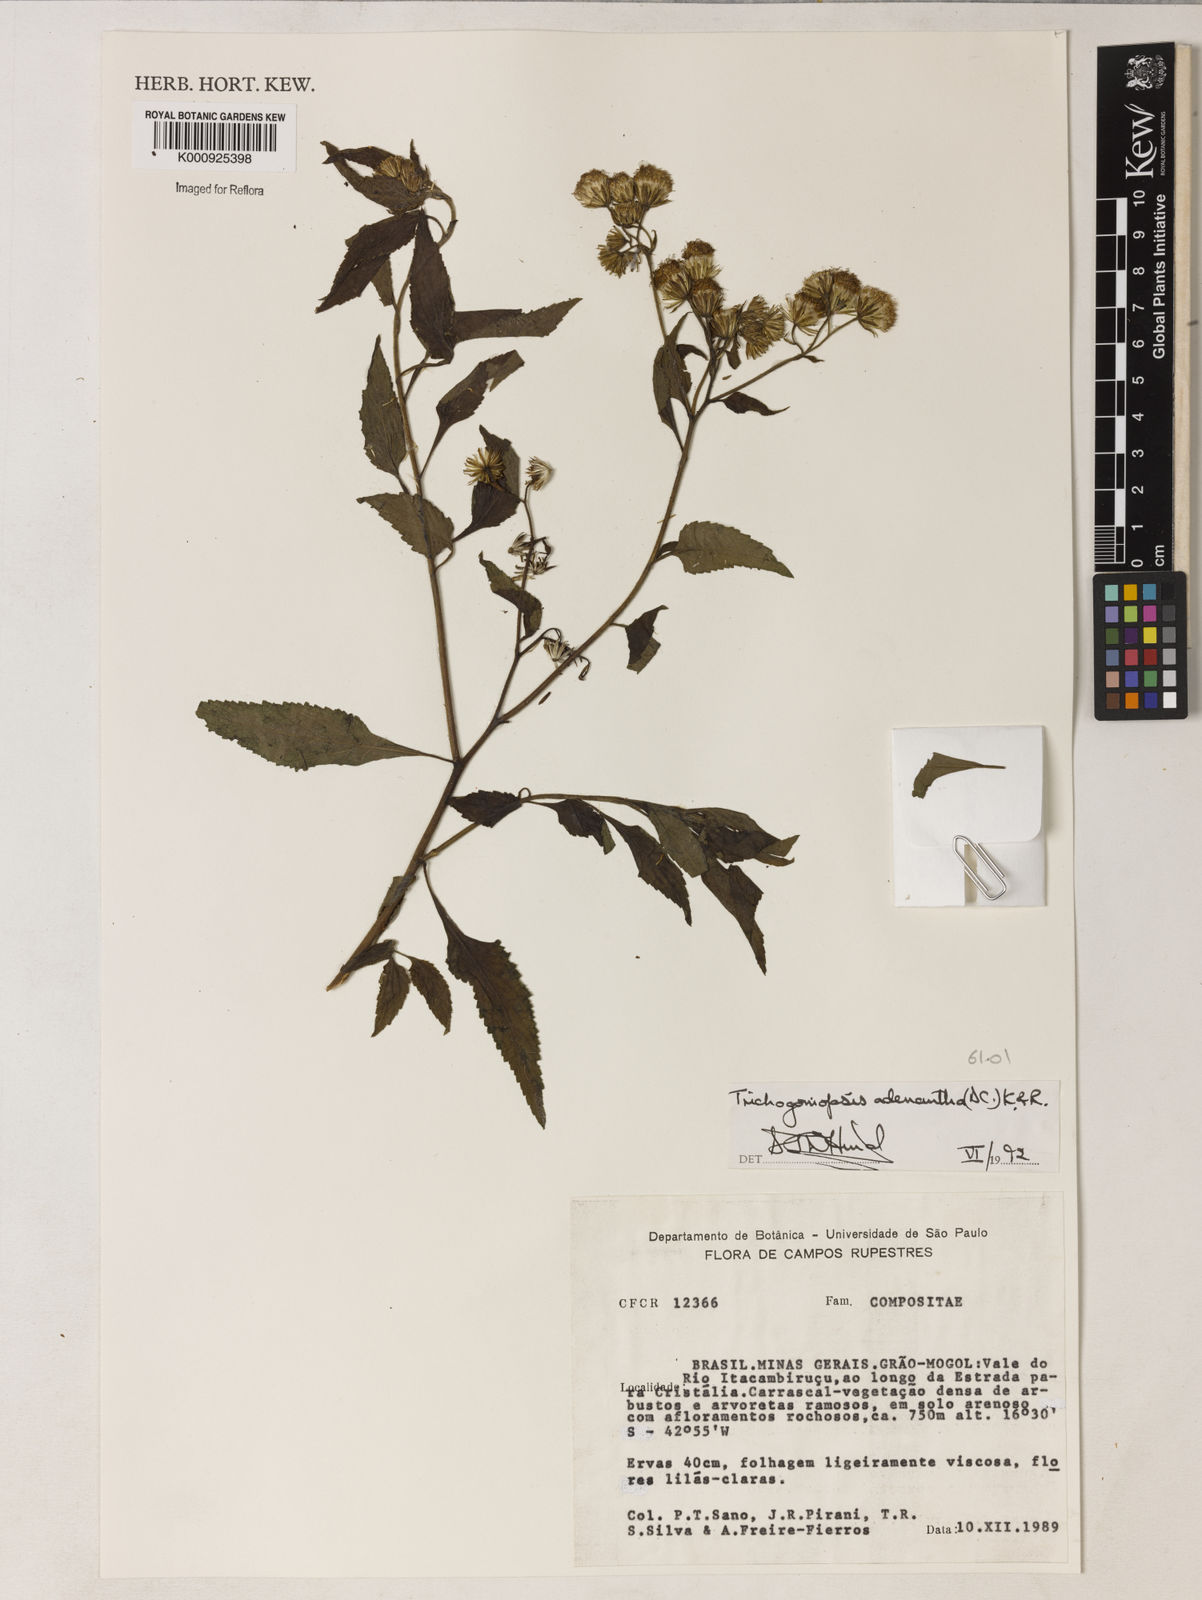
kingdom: Plantae
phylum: Tracheophyta
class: Magnoliopsida
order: Asterales
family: Asteraceae
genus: Trichogoniopsis
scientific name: Trichogoniopsis adenantha
